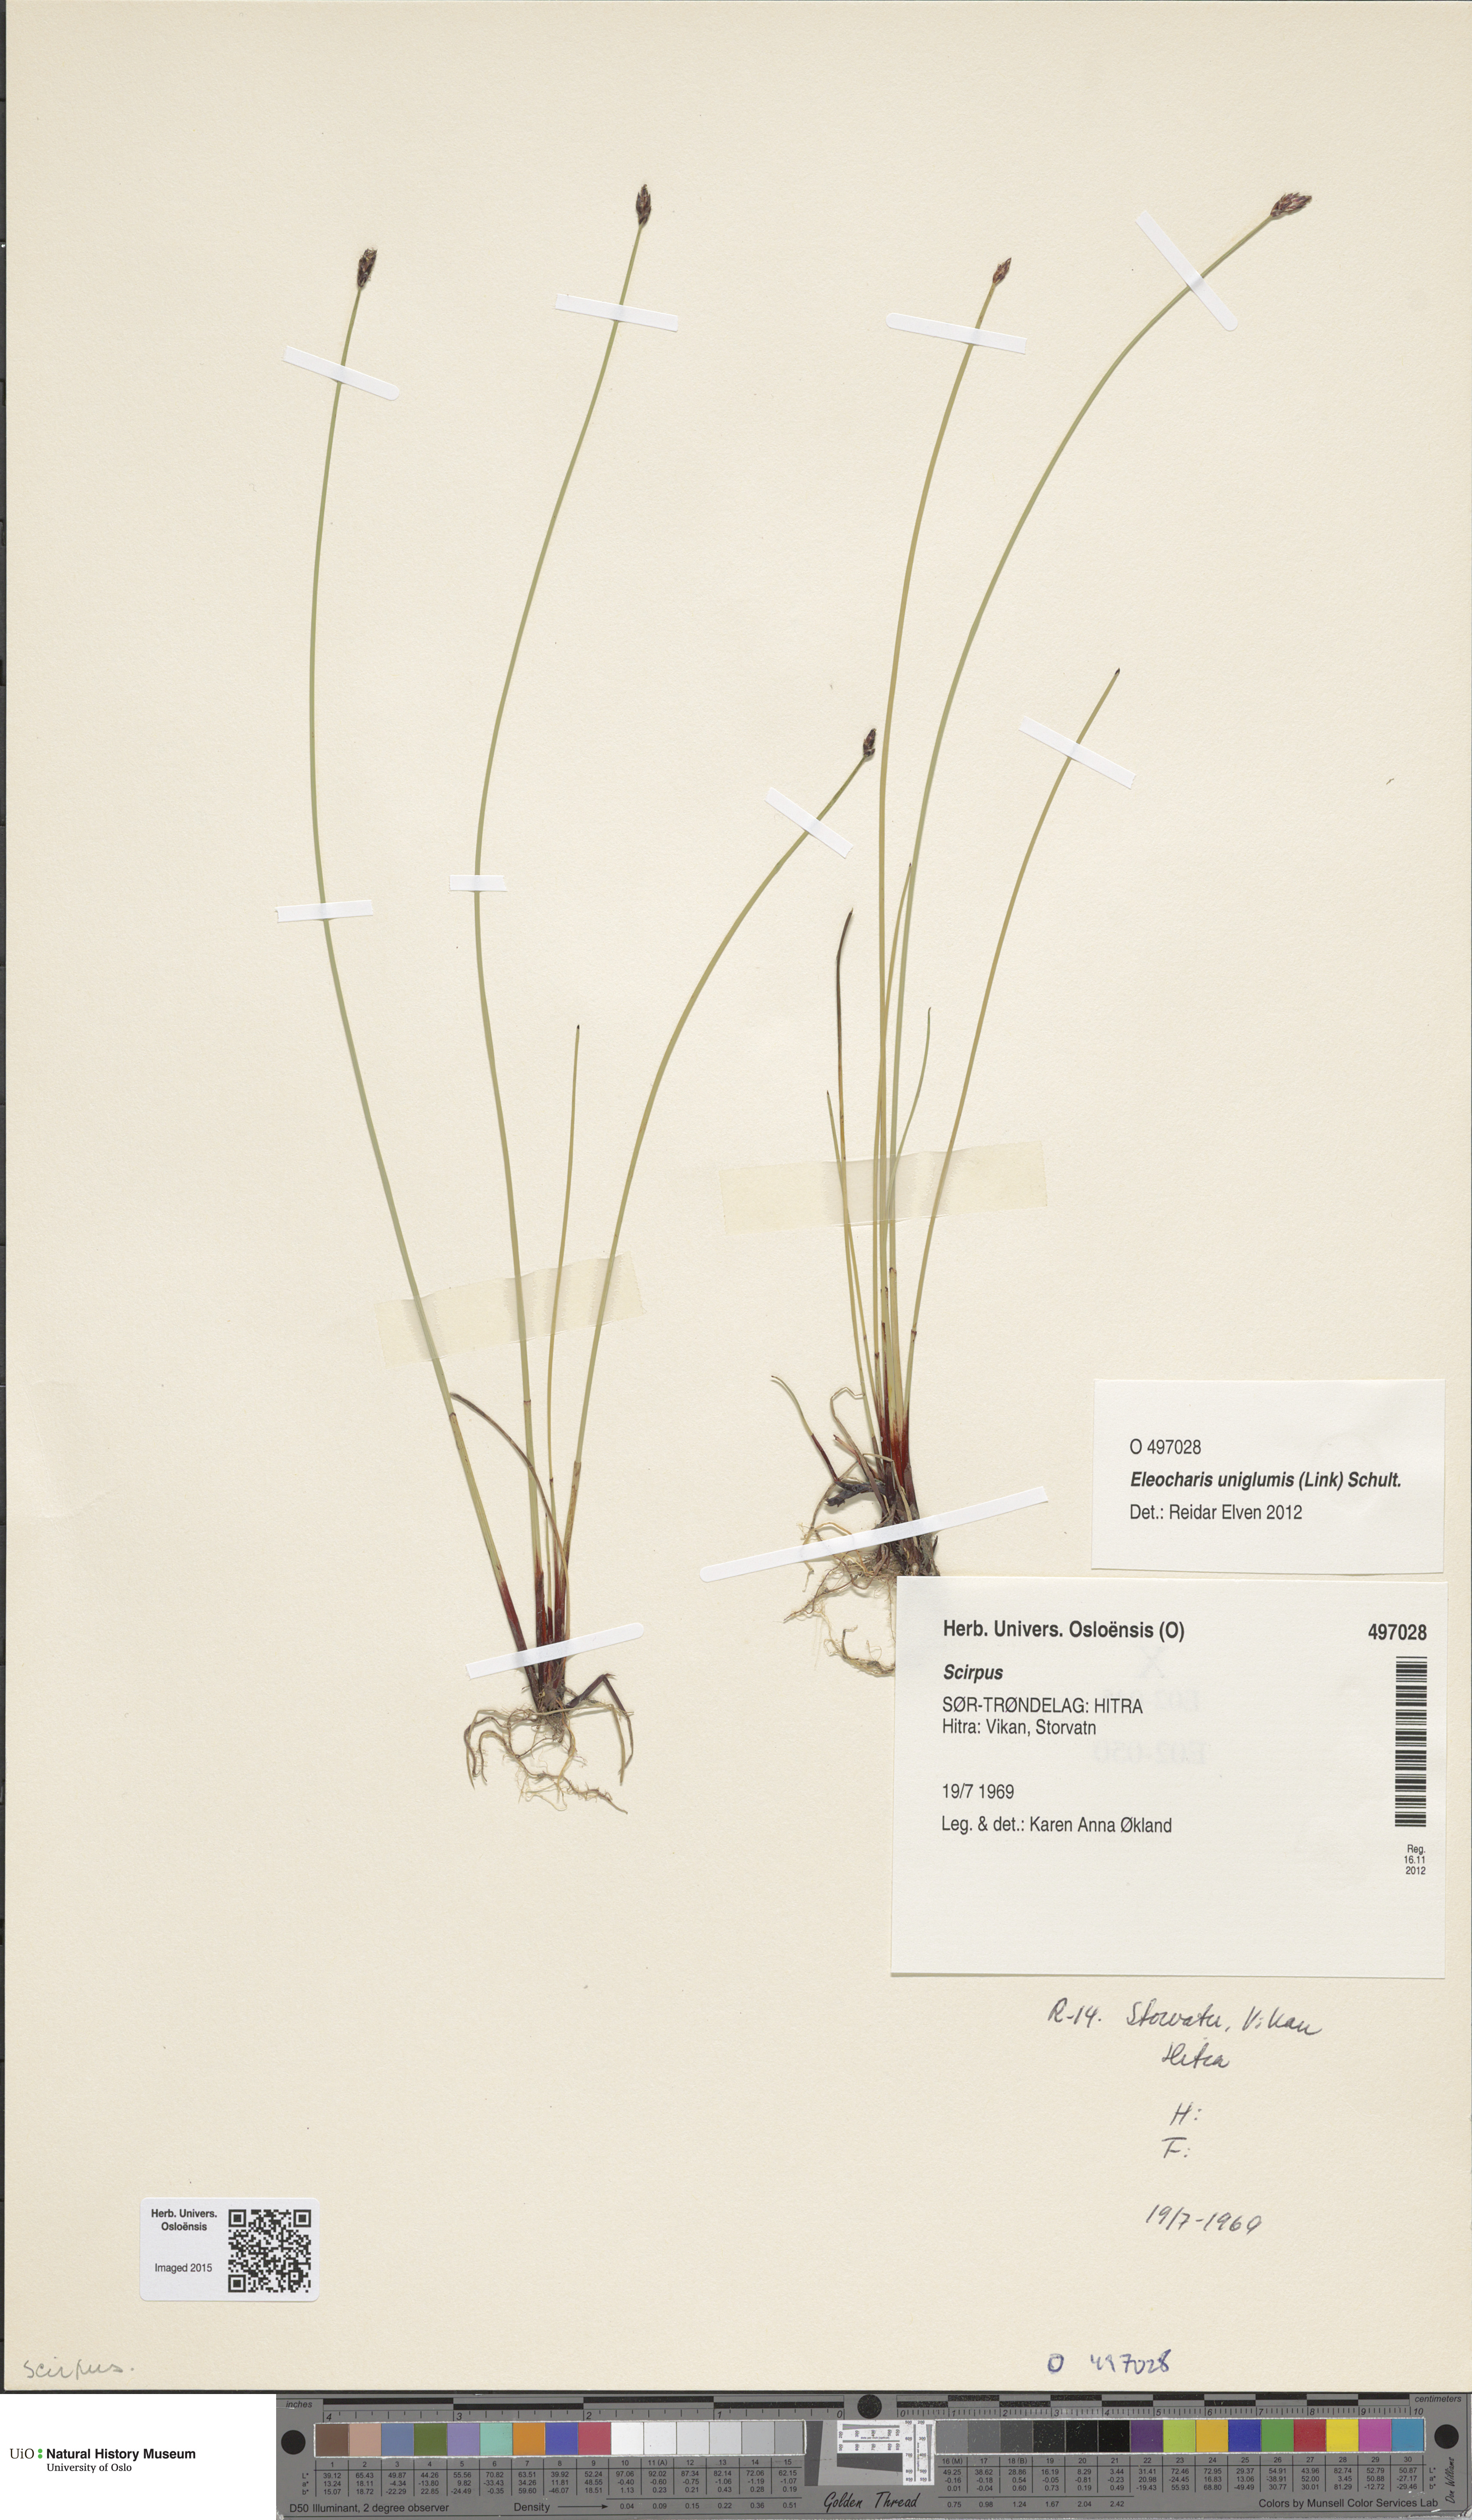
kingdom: Plantae
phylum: Tracheophyta
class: Liliopsida
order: Poales
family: Cyperaceae
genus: Scirpus
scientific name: Scirpus
